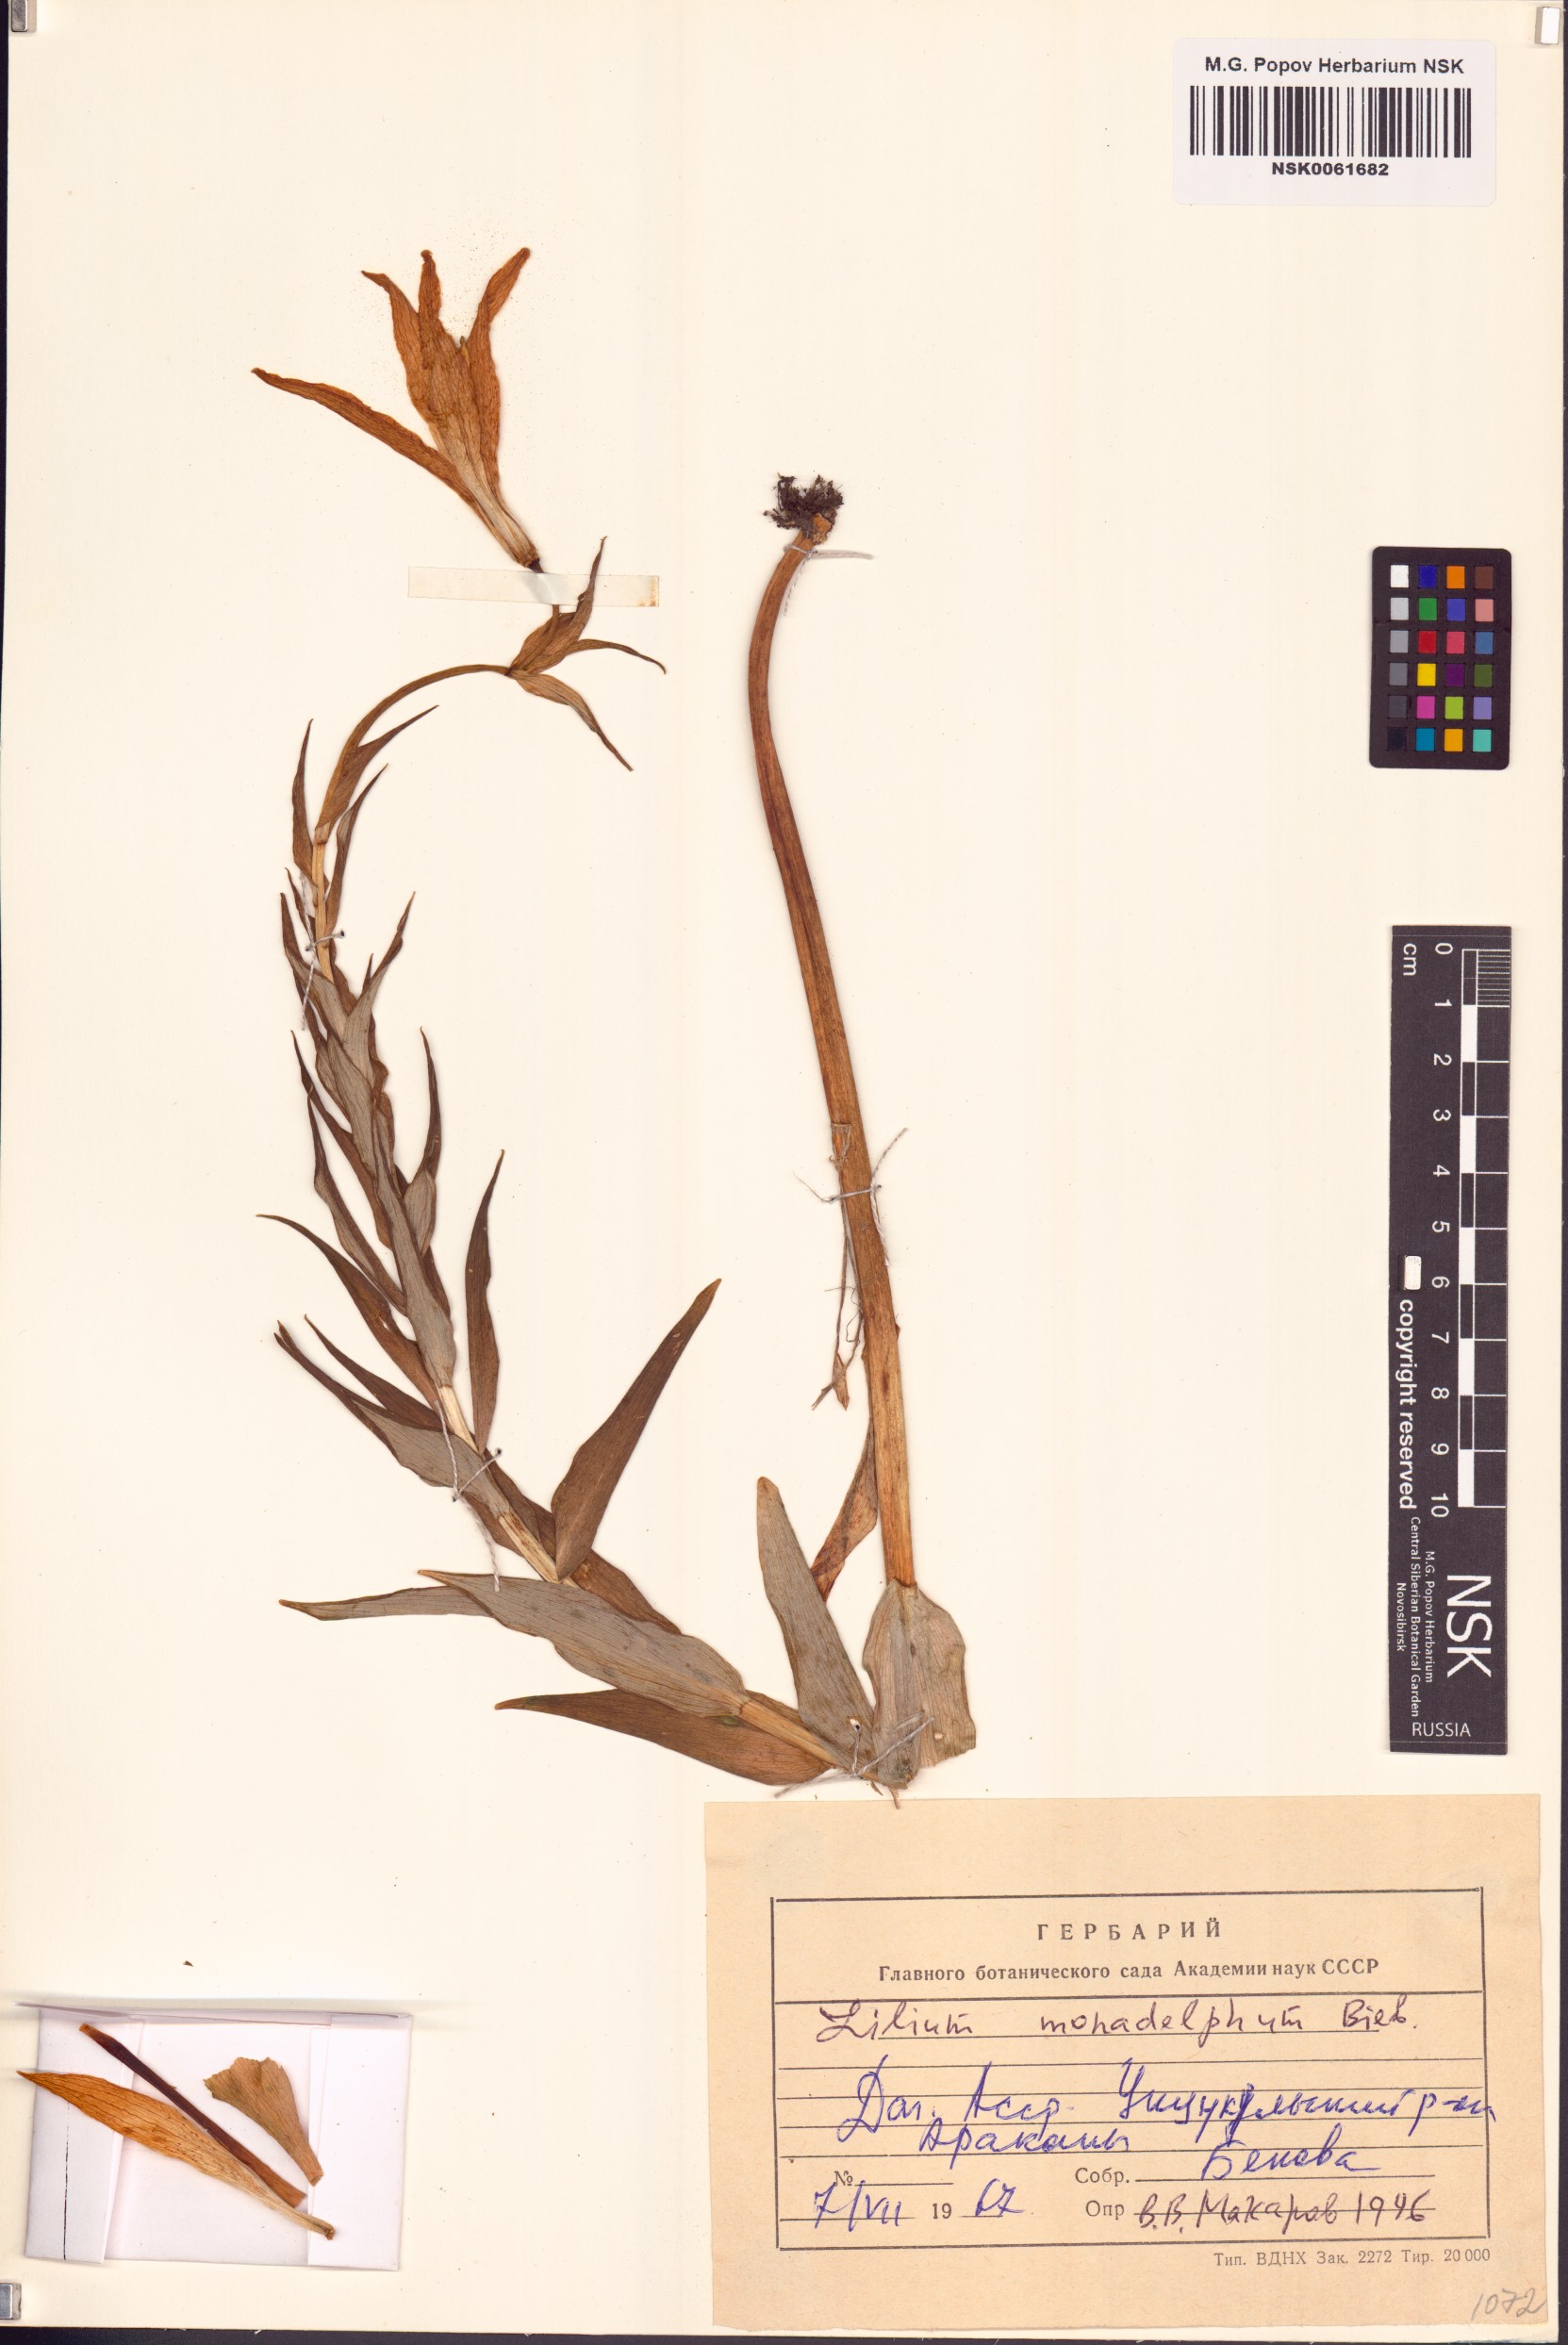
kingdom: Plantae
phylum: Tracheophyta
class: Liliopsida
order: Liliales
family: Liliaceae
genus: Lilium
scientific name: Lilium monadelphum
